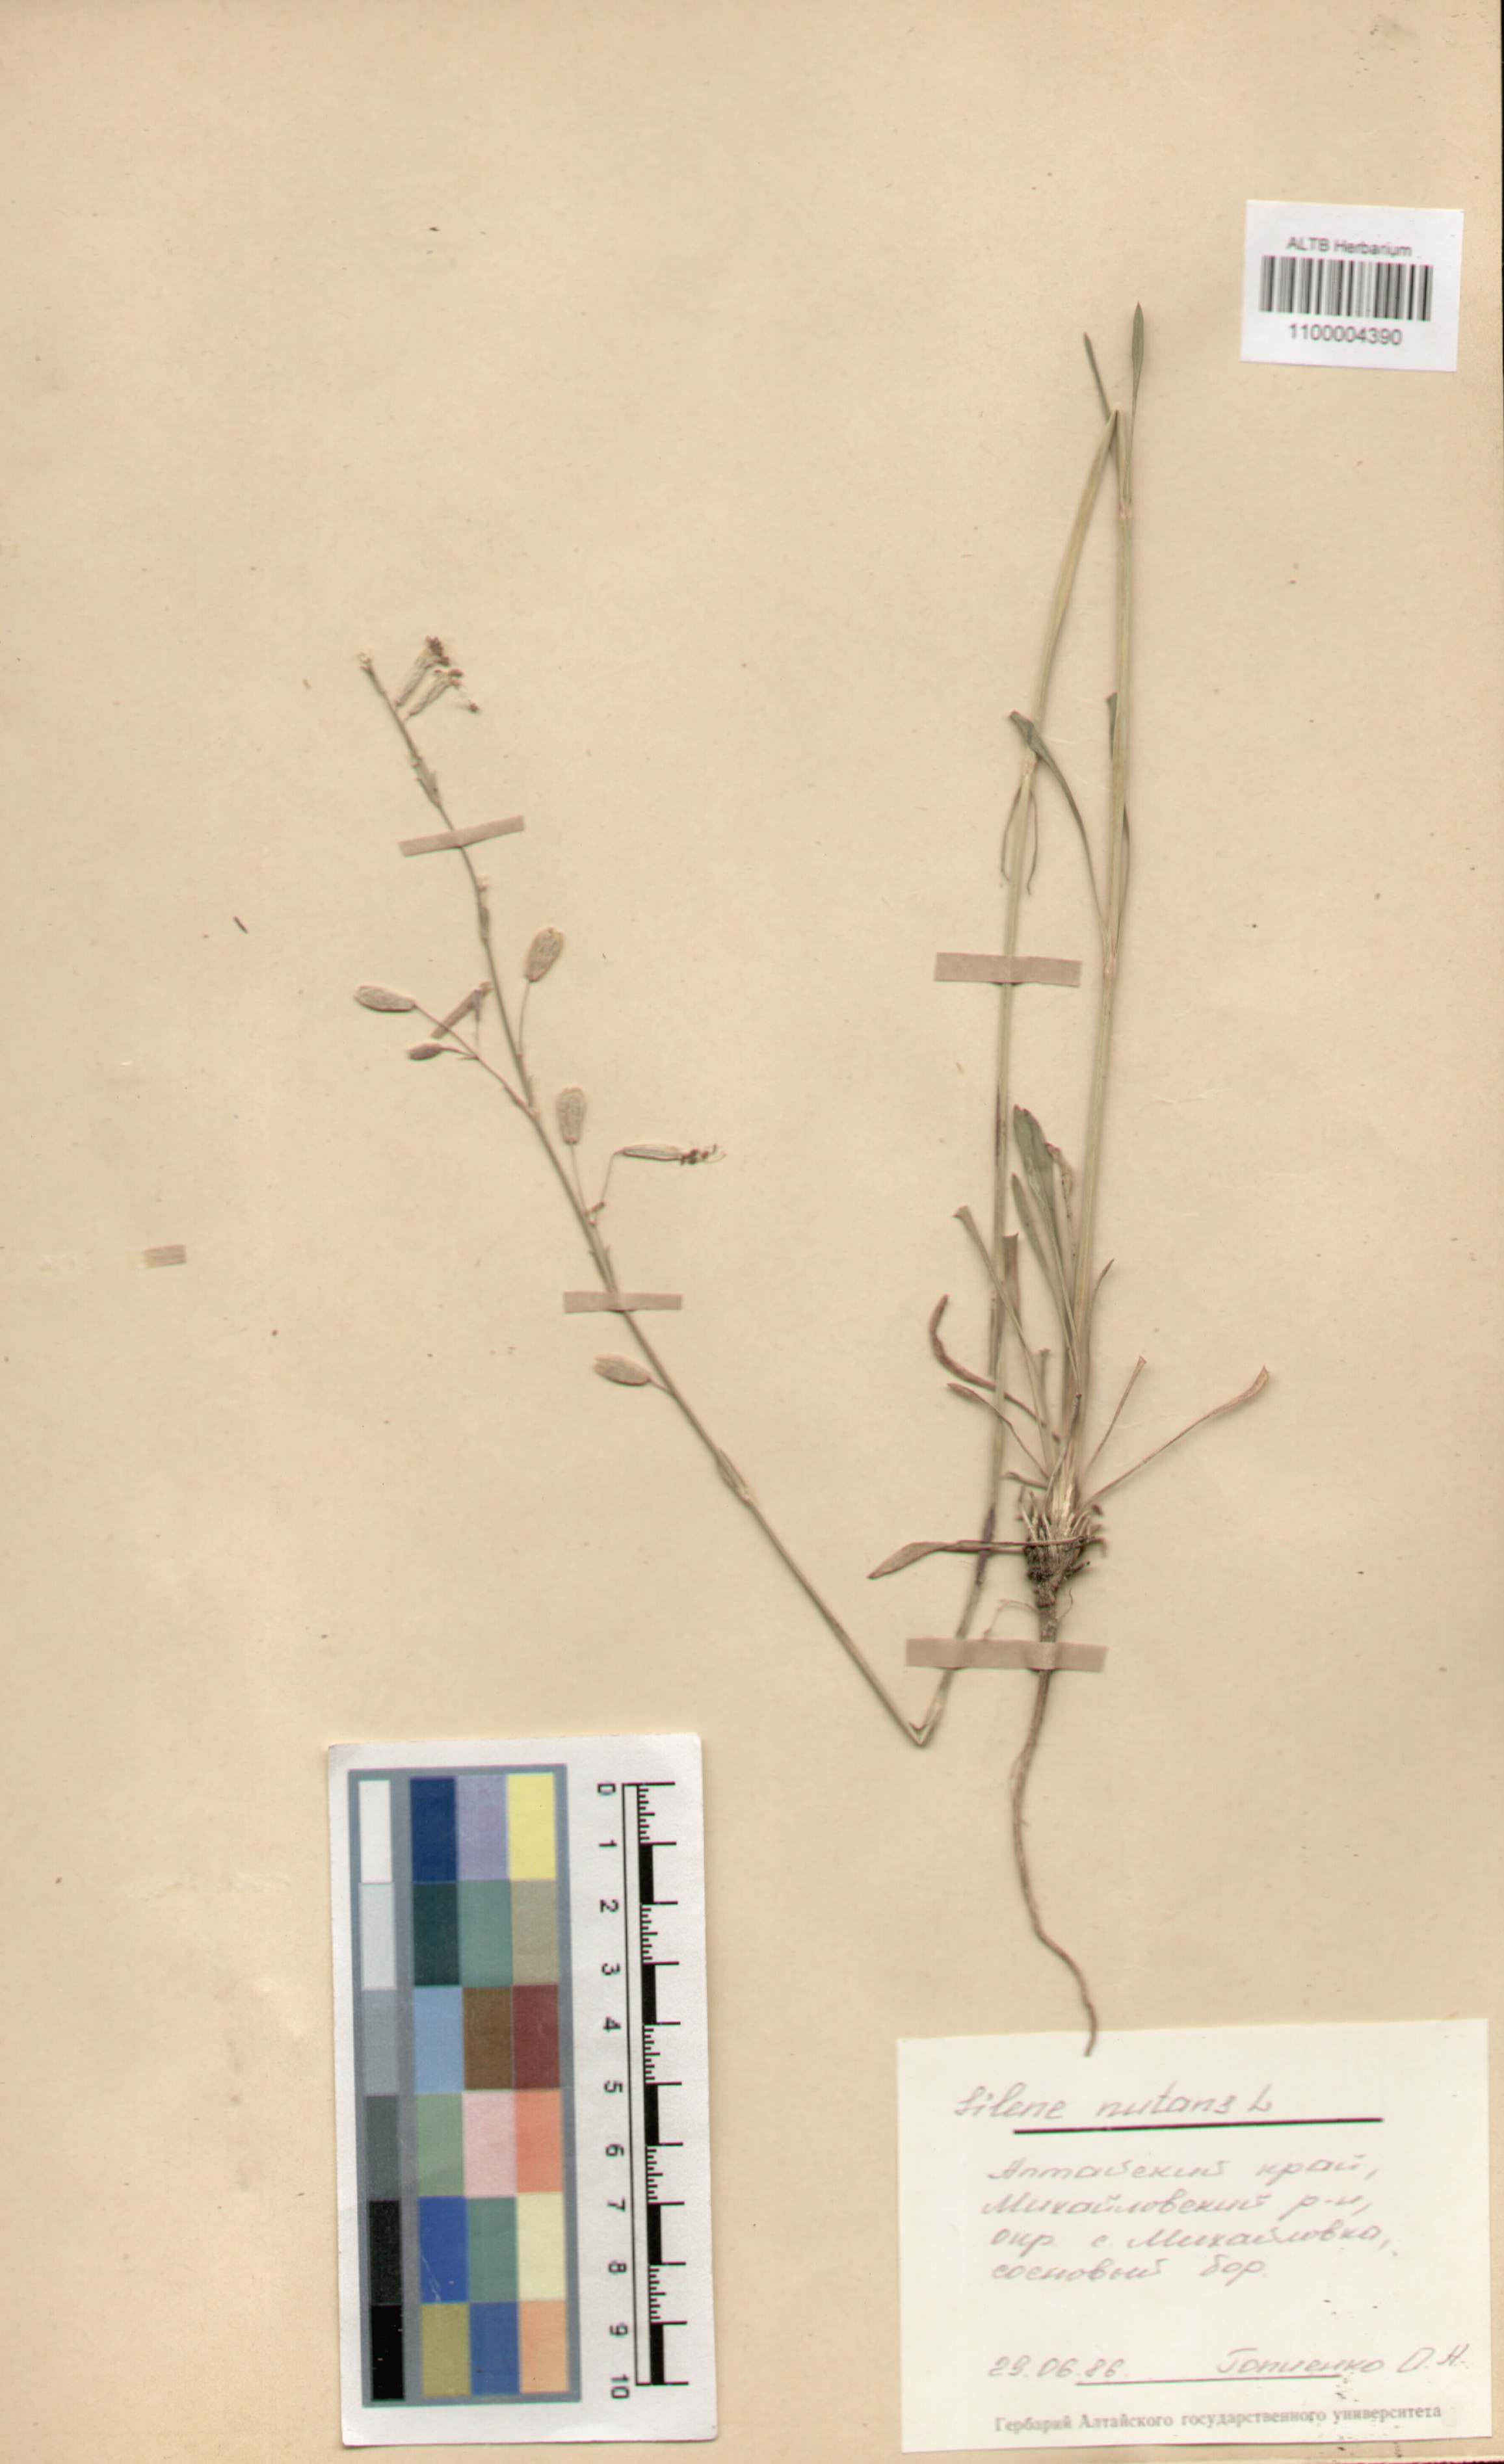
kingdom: Plantae
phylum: Tracheophyta
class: Magnoliopsida
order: Caryophyllales
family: Caryophyllaceae
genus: Silene
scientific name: Silene nutans
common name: Nottingham catchfly
